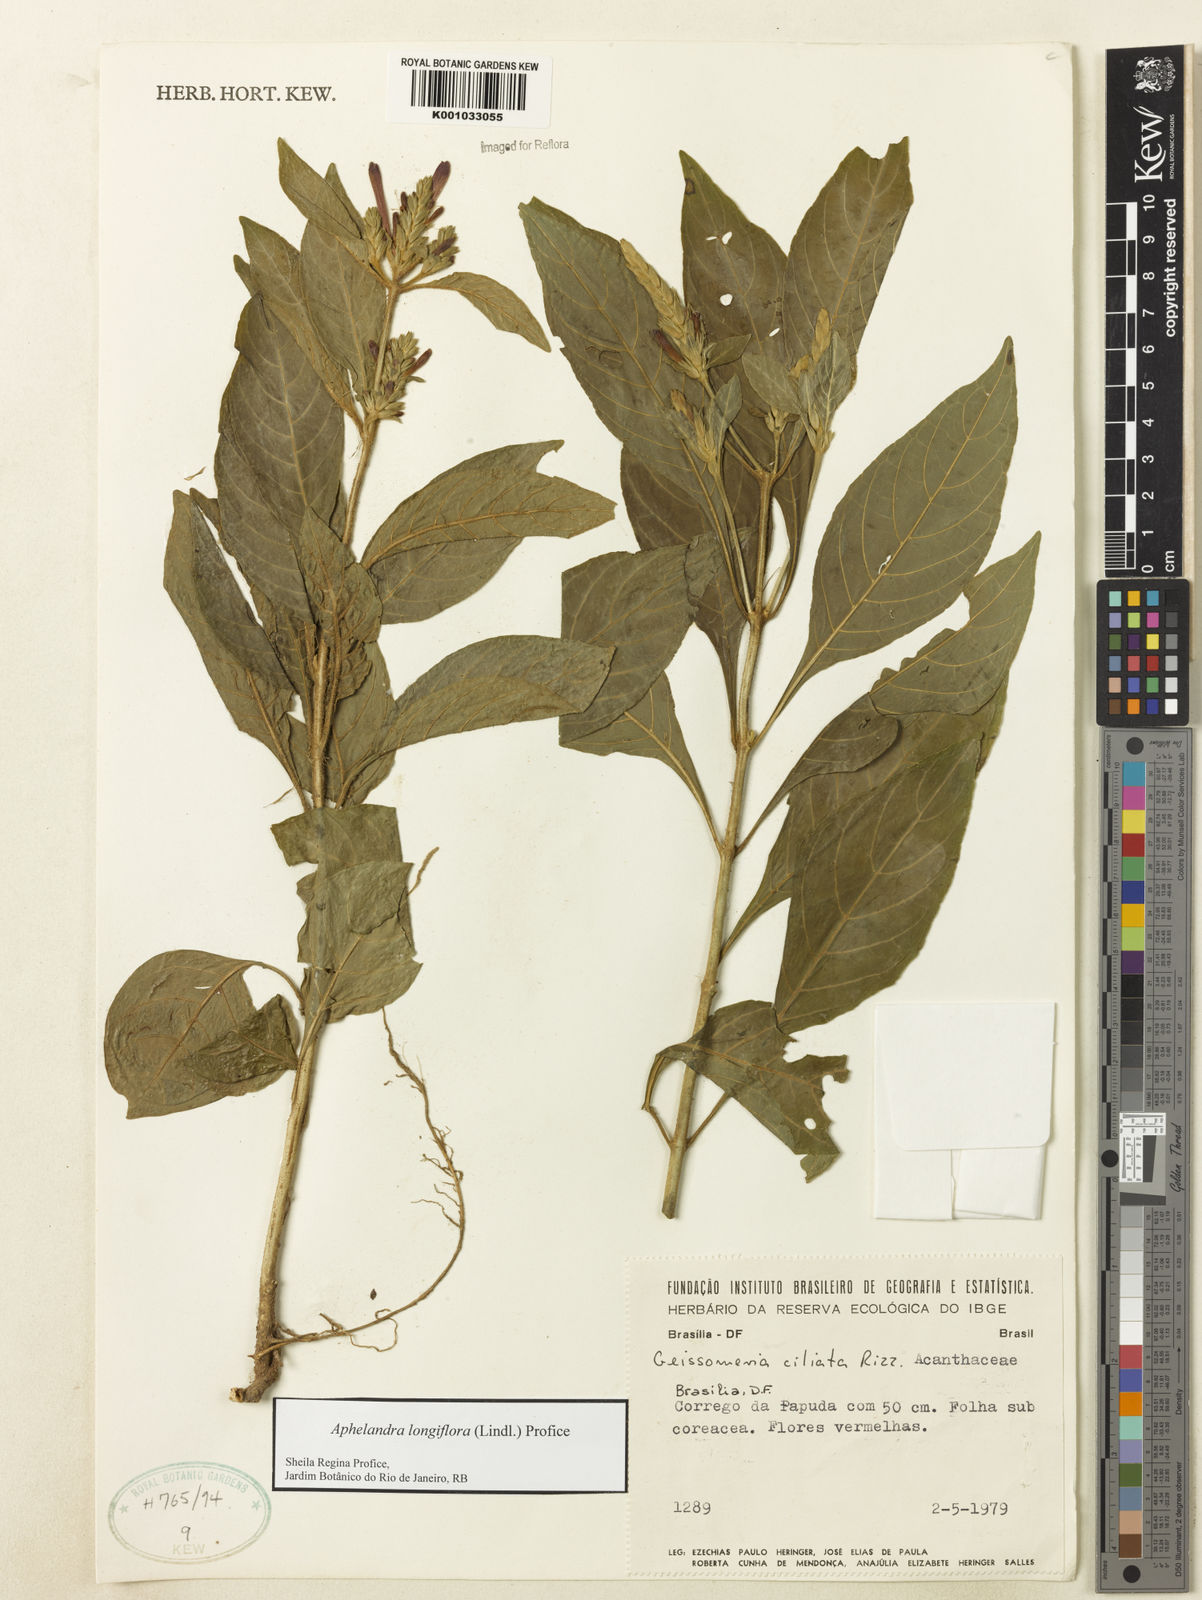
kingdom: Plantae
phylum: Tracheophyta
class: Magnoliopsida
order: Lamiales
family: Acanthaceae
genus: Aphelandra
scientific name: Aphelandra longiflora
